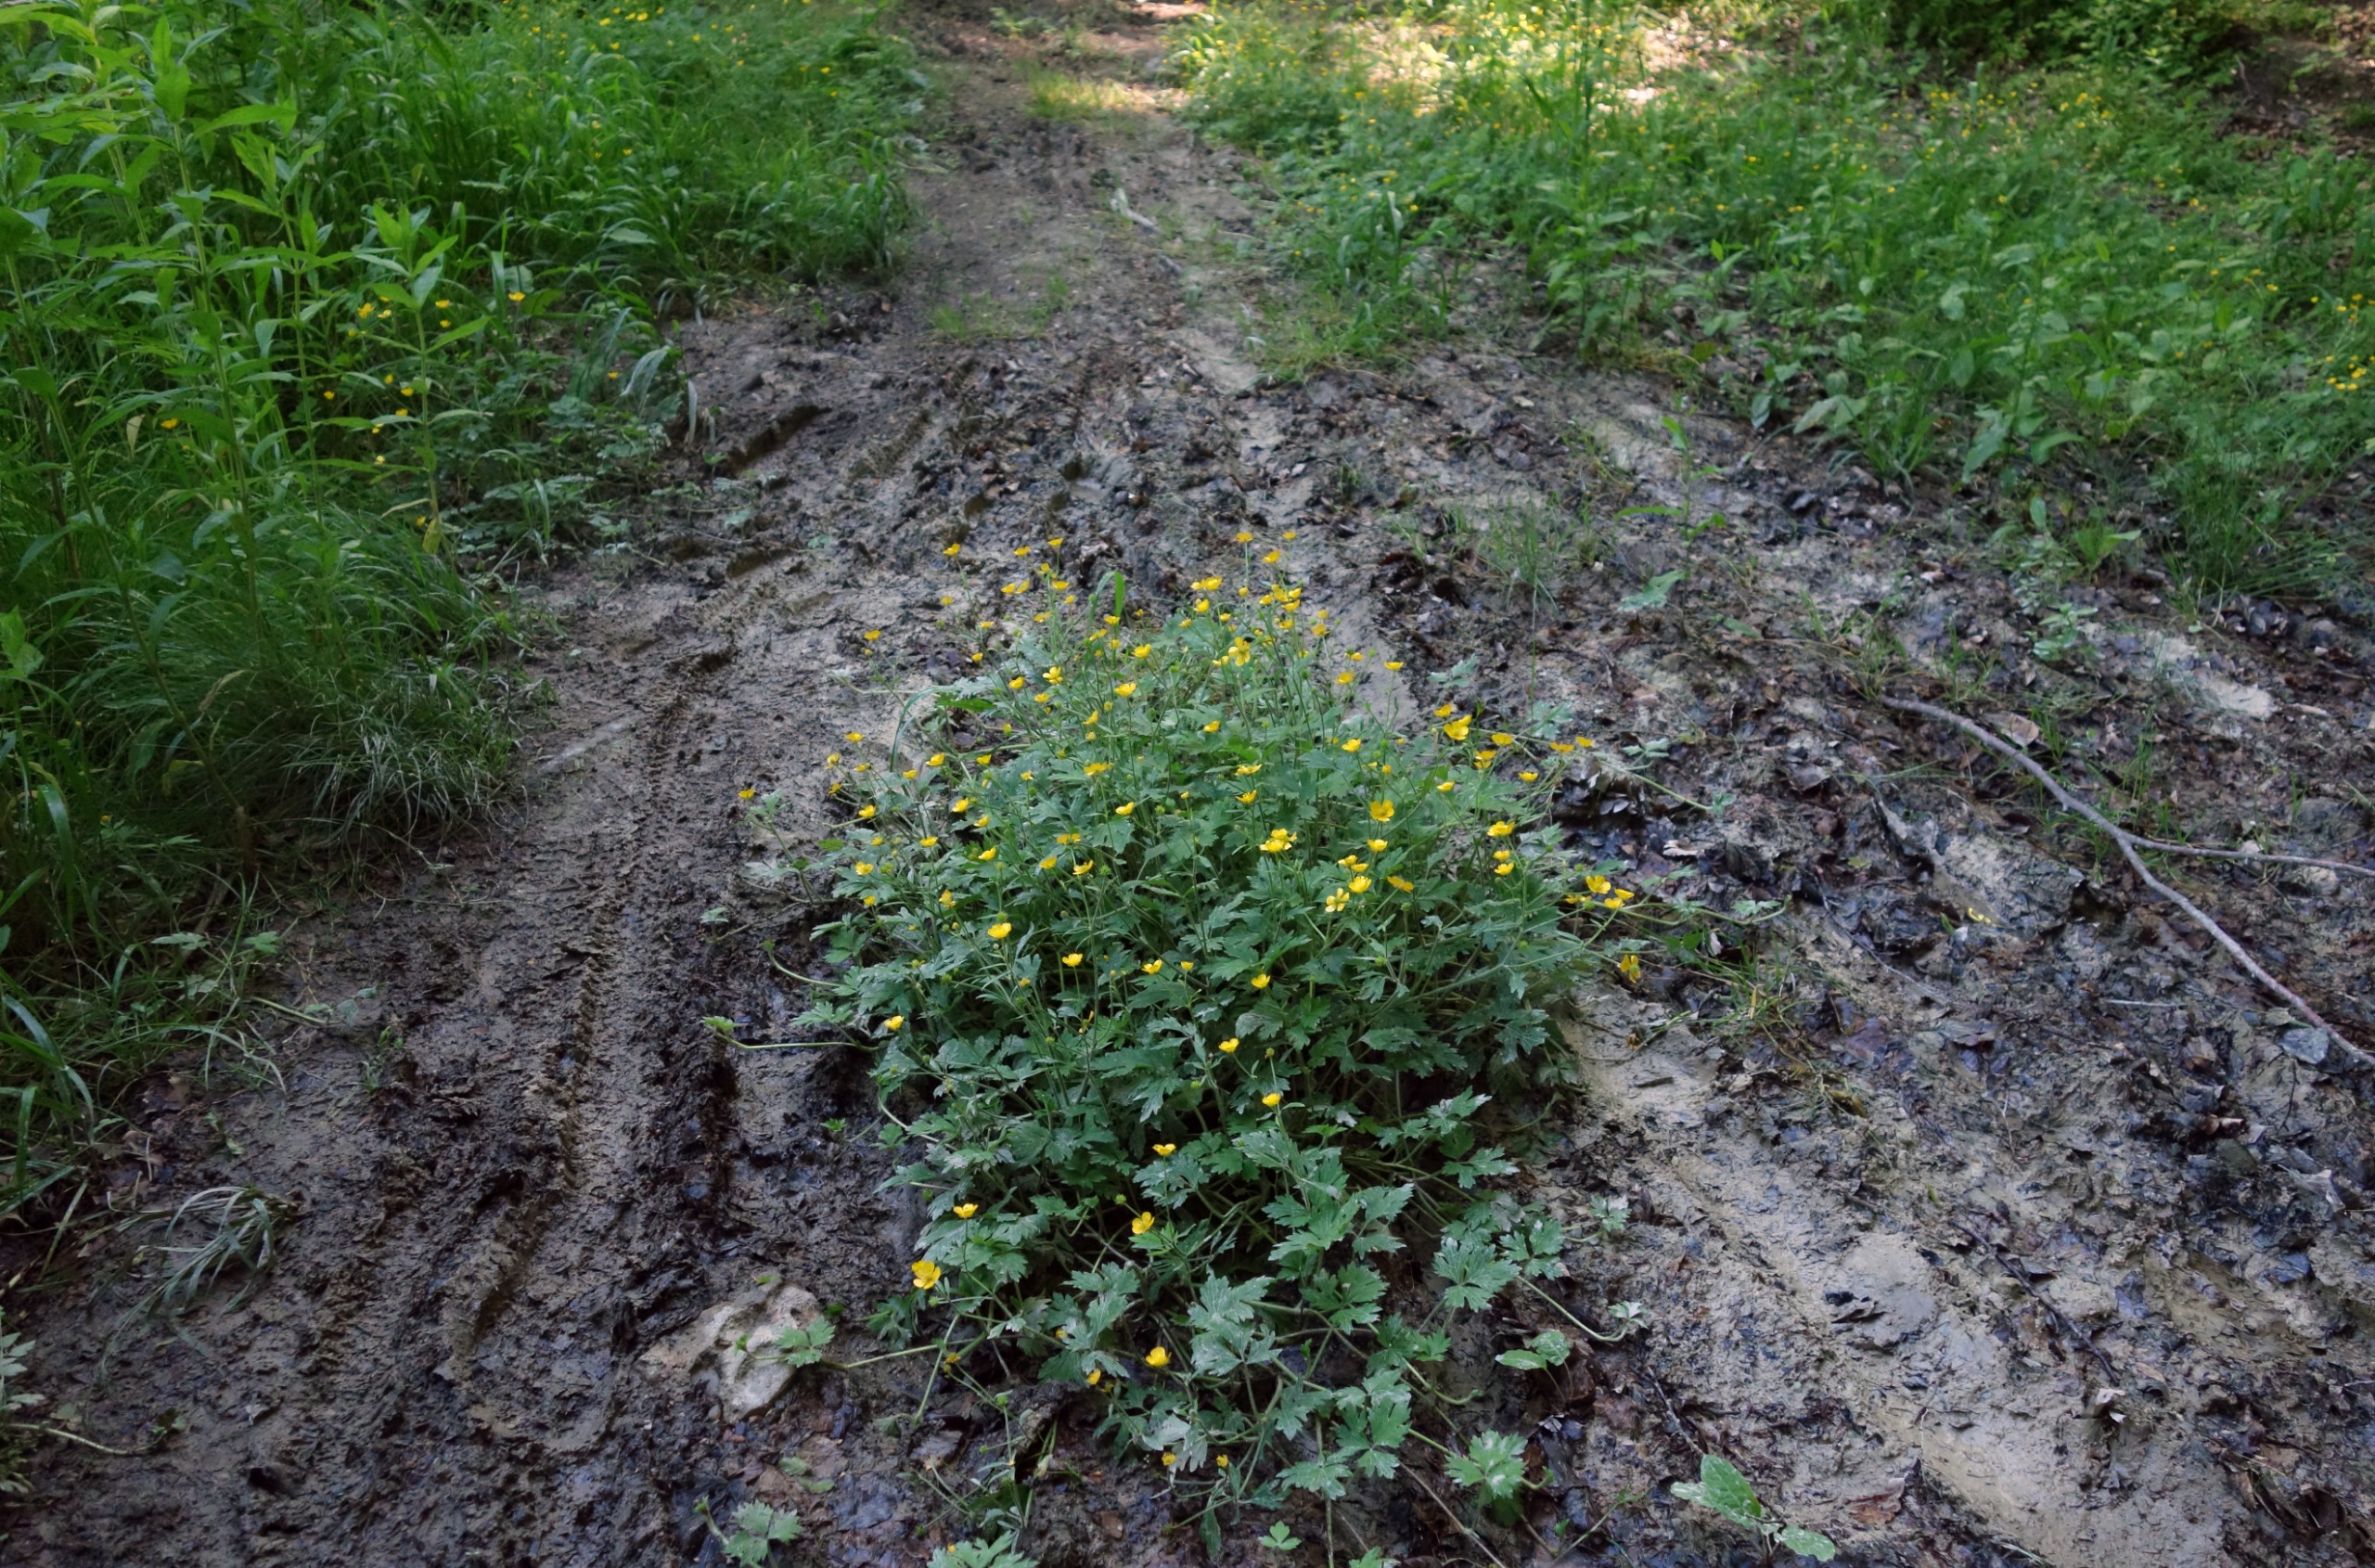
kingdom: Plantae
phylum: Tracheophyta
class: Magnoliopsida
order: Ranunculales
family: Ranunculaceae
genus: Ranunculus
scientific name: Ranunculus repens
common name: Lav ranunkel
